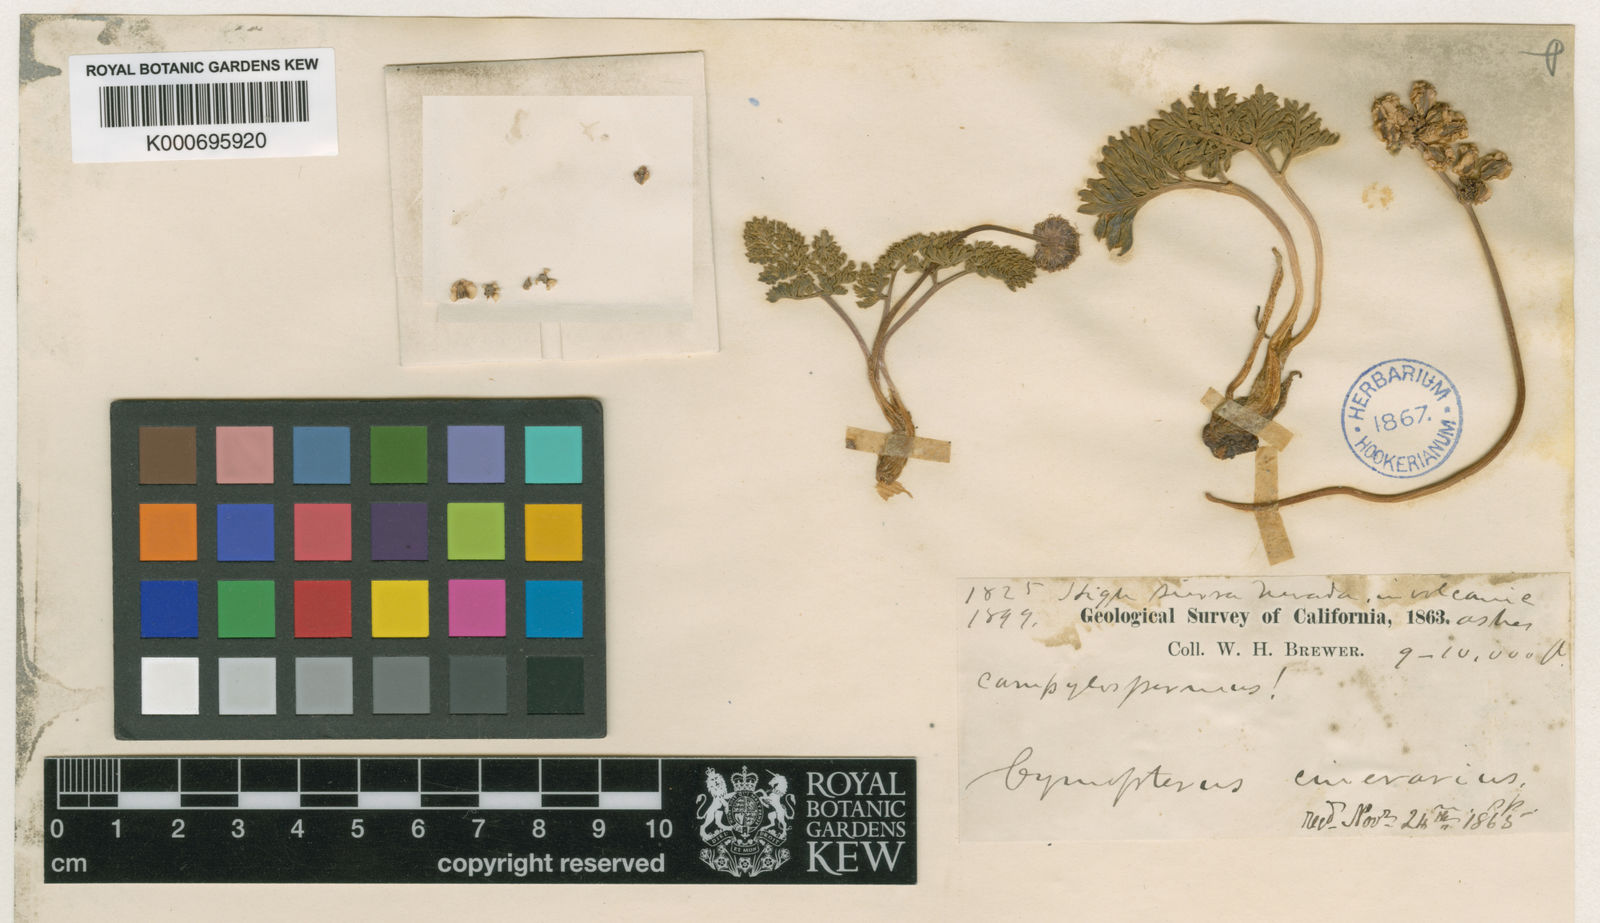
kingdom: Plantae
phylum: Tracheophyta
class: Magnoliopsida
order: Apiales
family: Apiaceae
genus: Aulospermum
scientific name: Aulospermum cinerarium
